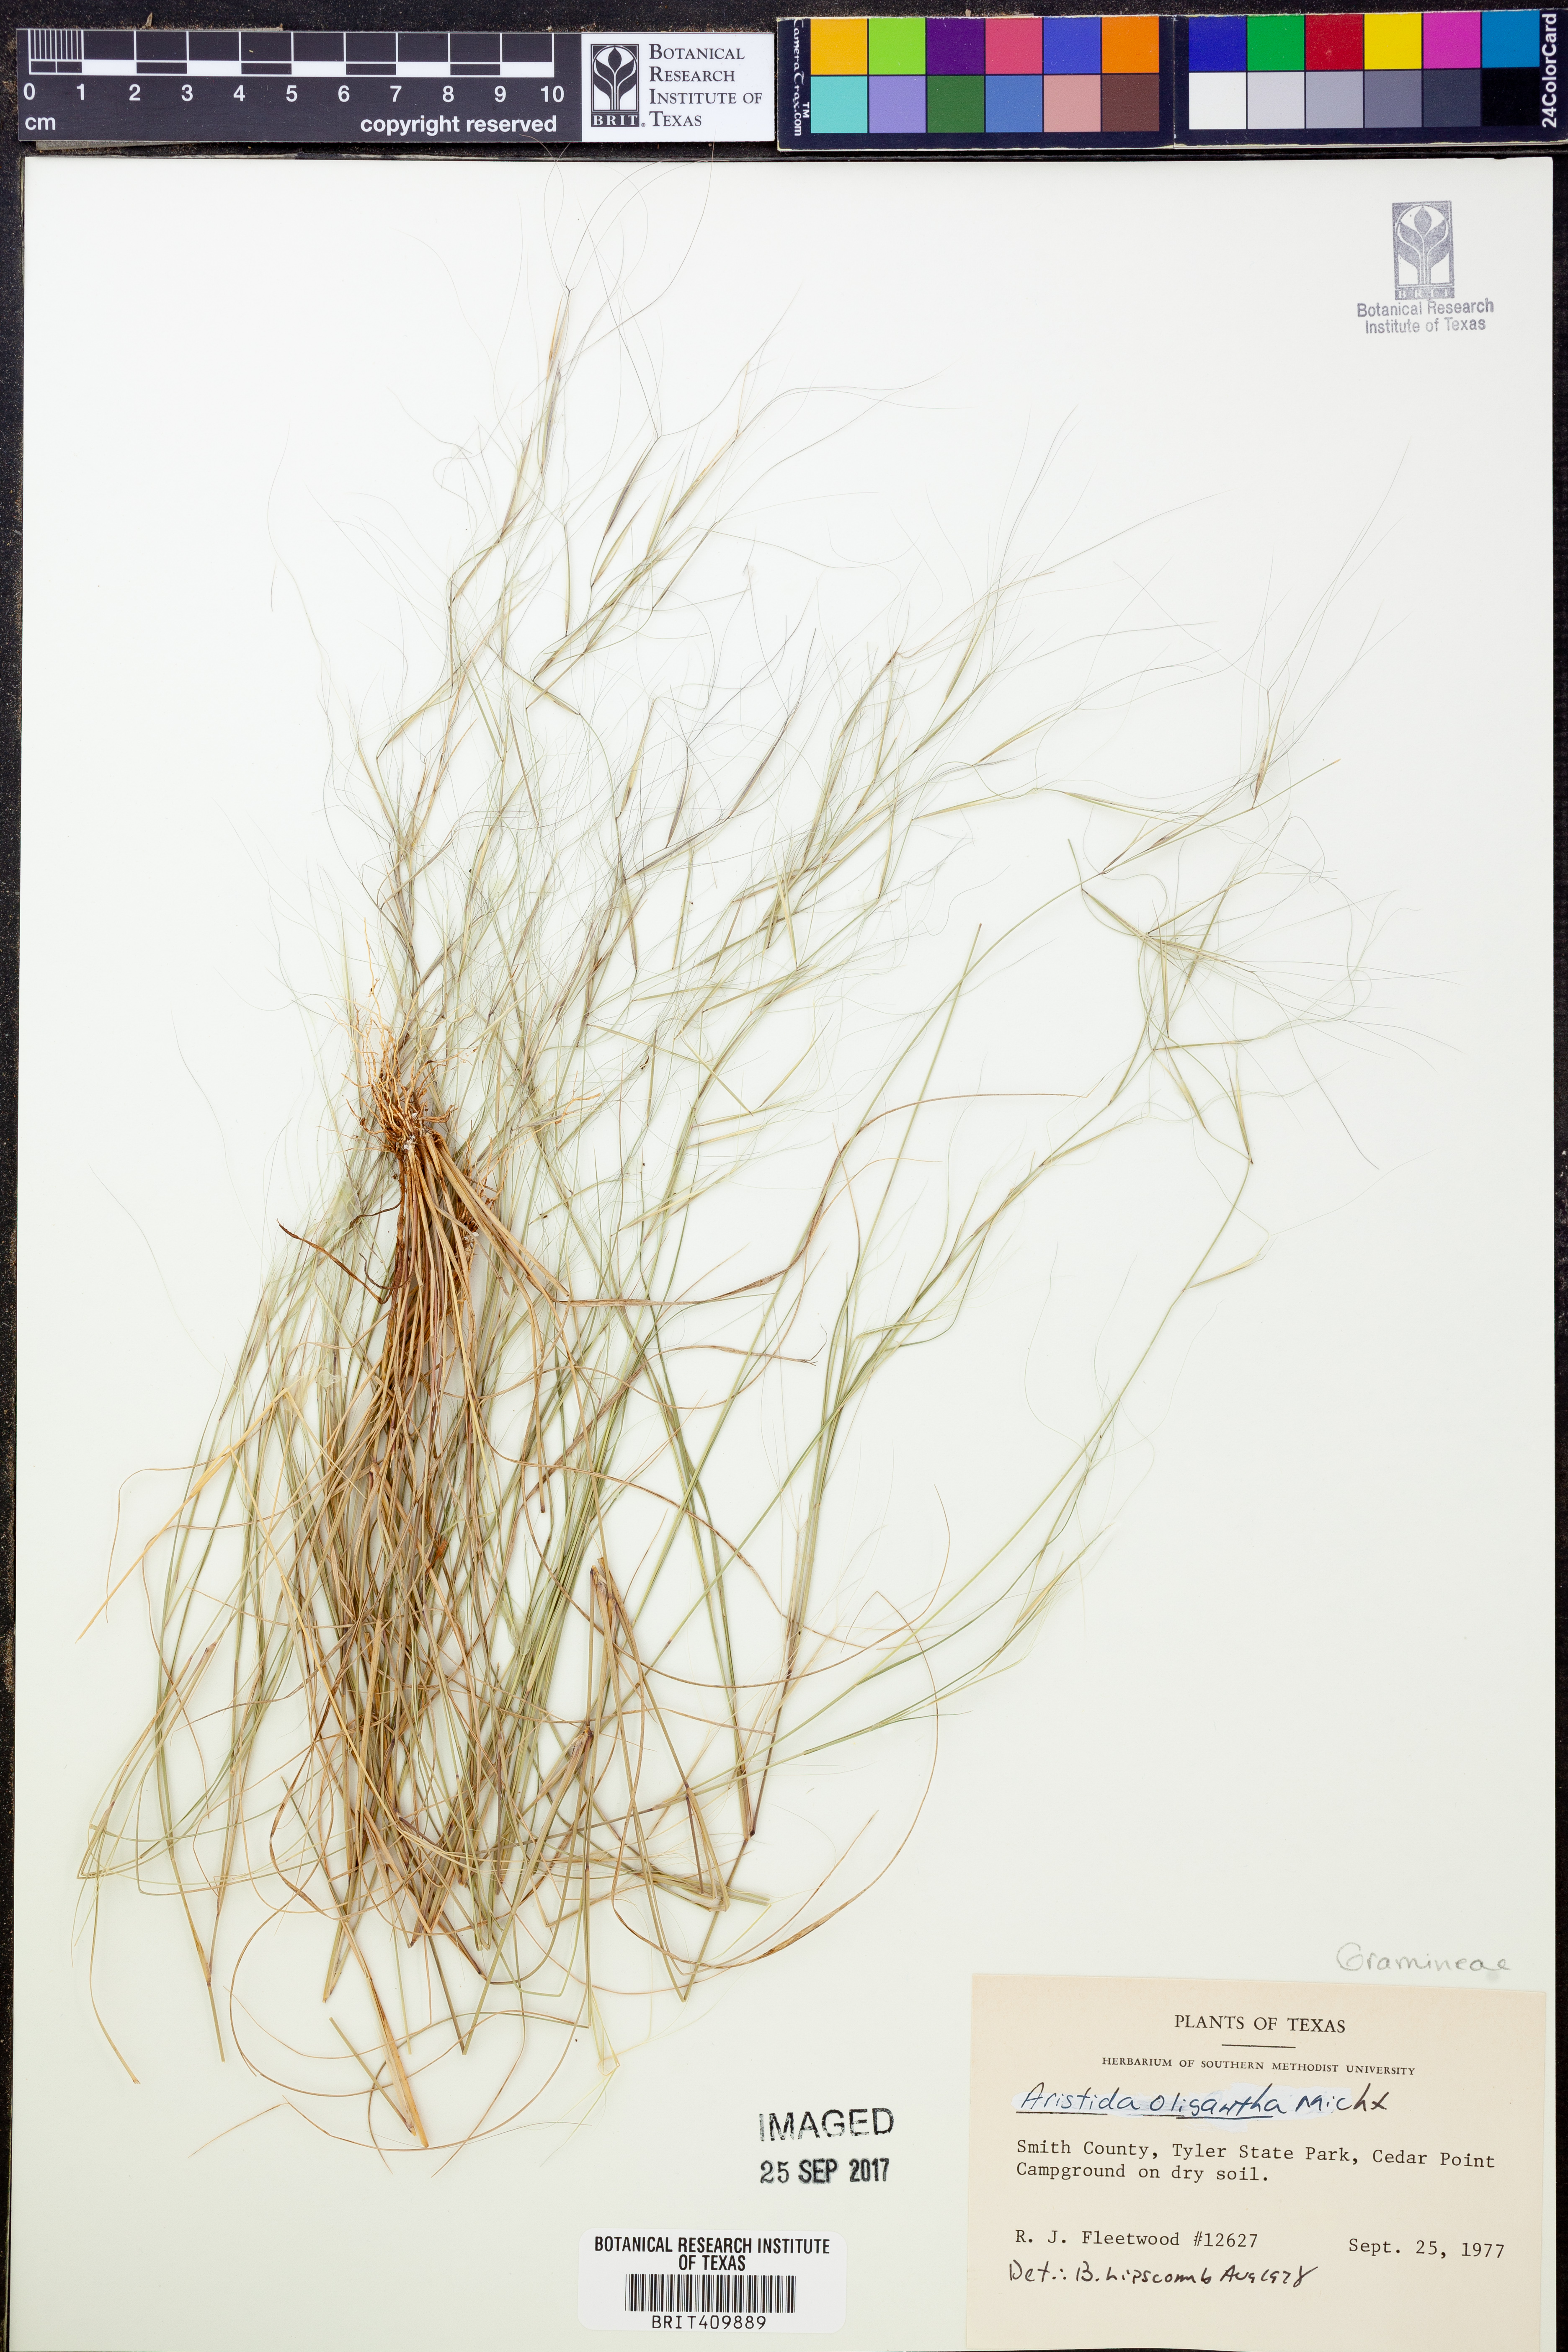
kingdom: Plantae
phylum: Tracheophyta
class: Liliopsida
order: Poales
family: Poaceae
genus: Aristida
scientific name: Aristida oligantha
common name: Few-flowered aristida
